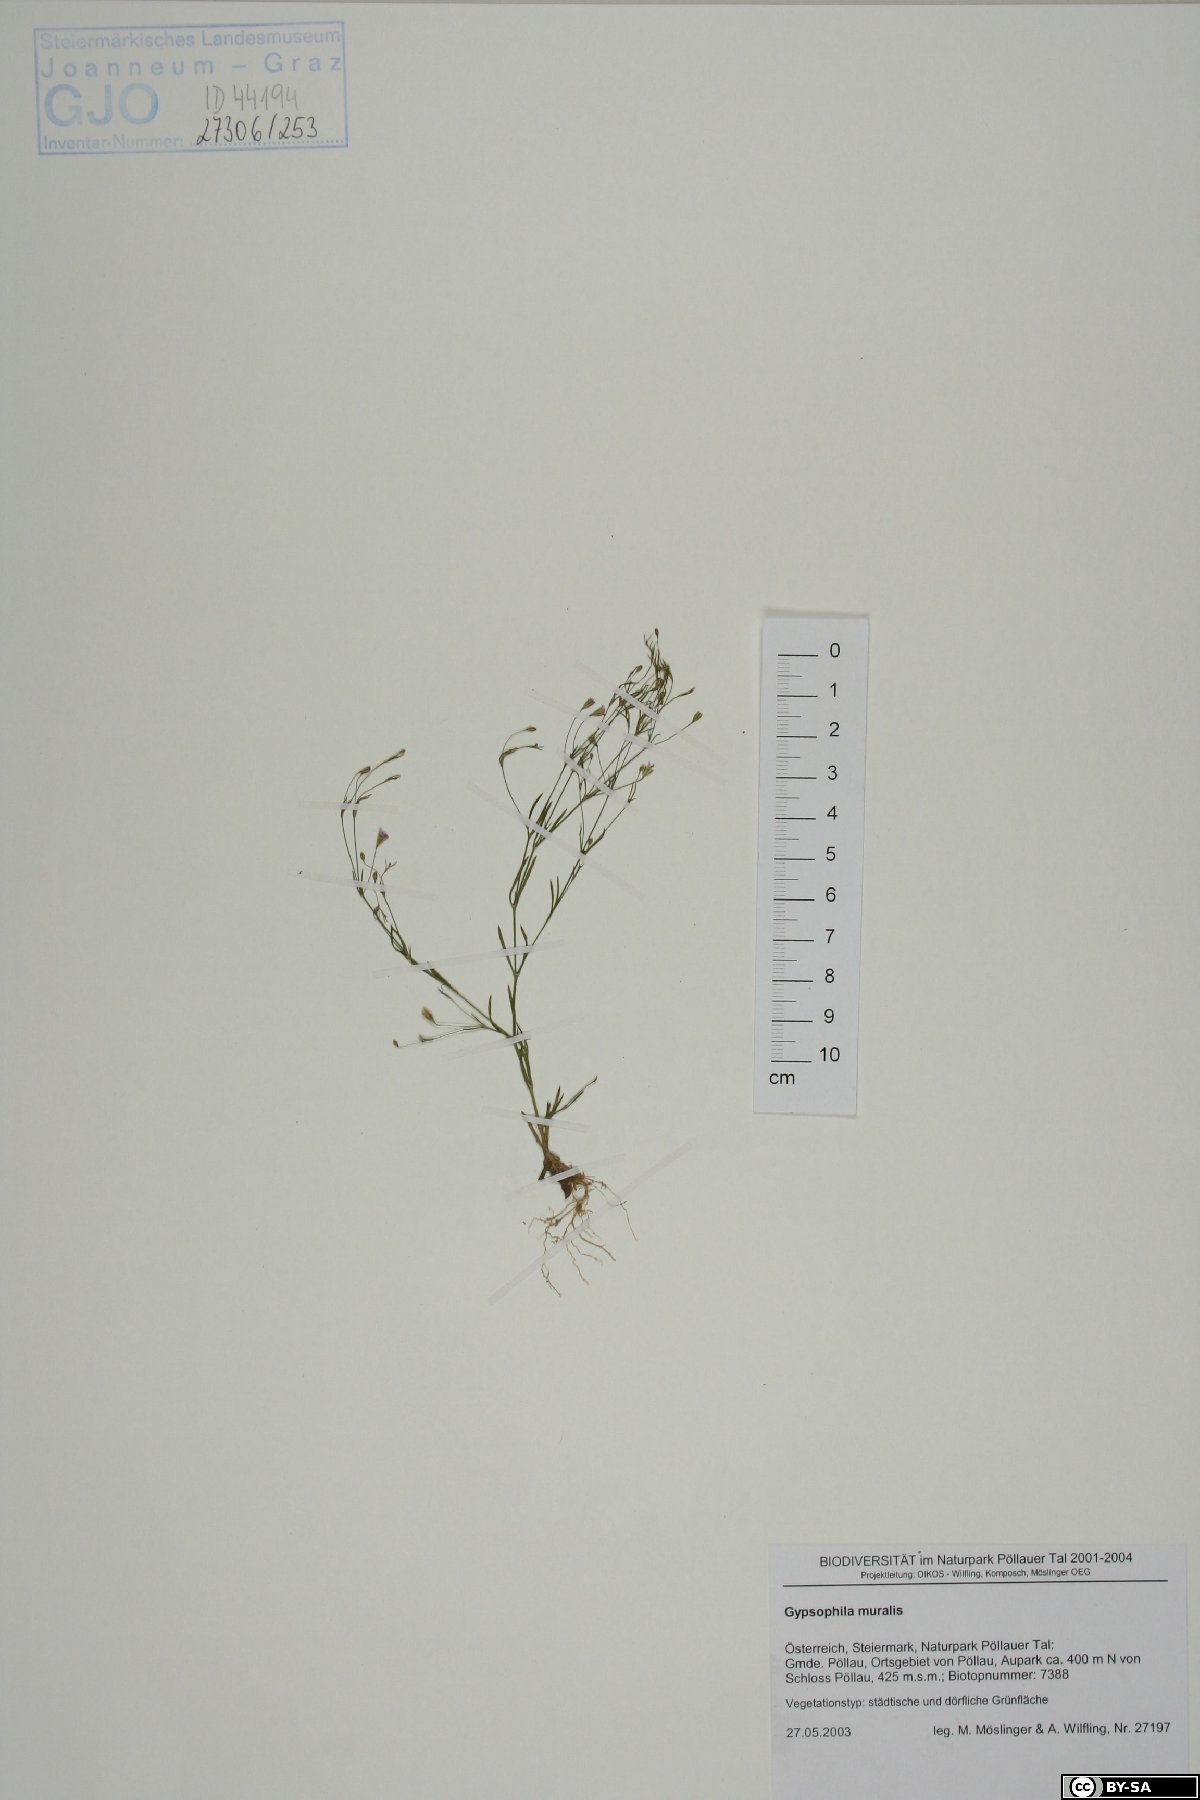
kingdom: Plantae
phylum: Tracheophyta
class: Magnoliopsida
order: Caryophyllales
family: Caryophyllaceae
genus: Psammophiliella
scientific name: Psammophiliella muralis
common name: Cushion baby's-breath
